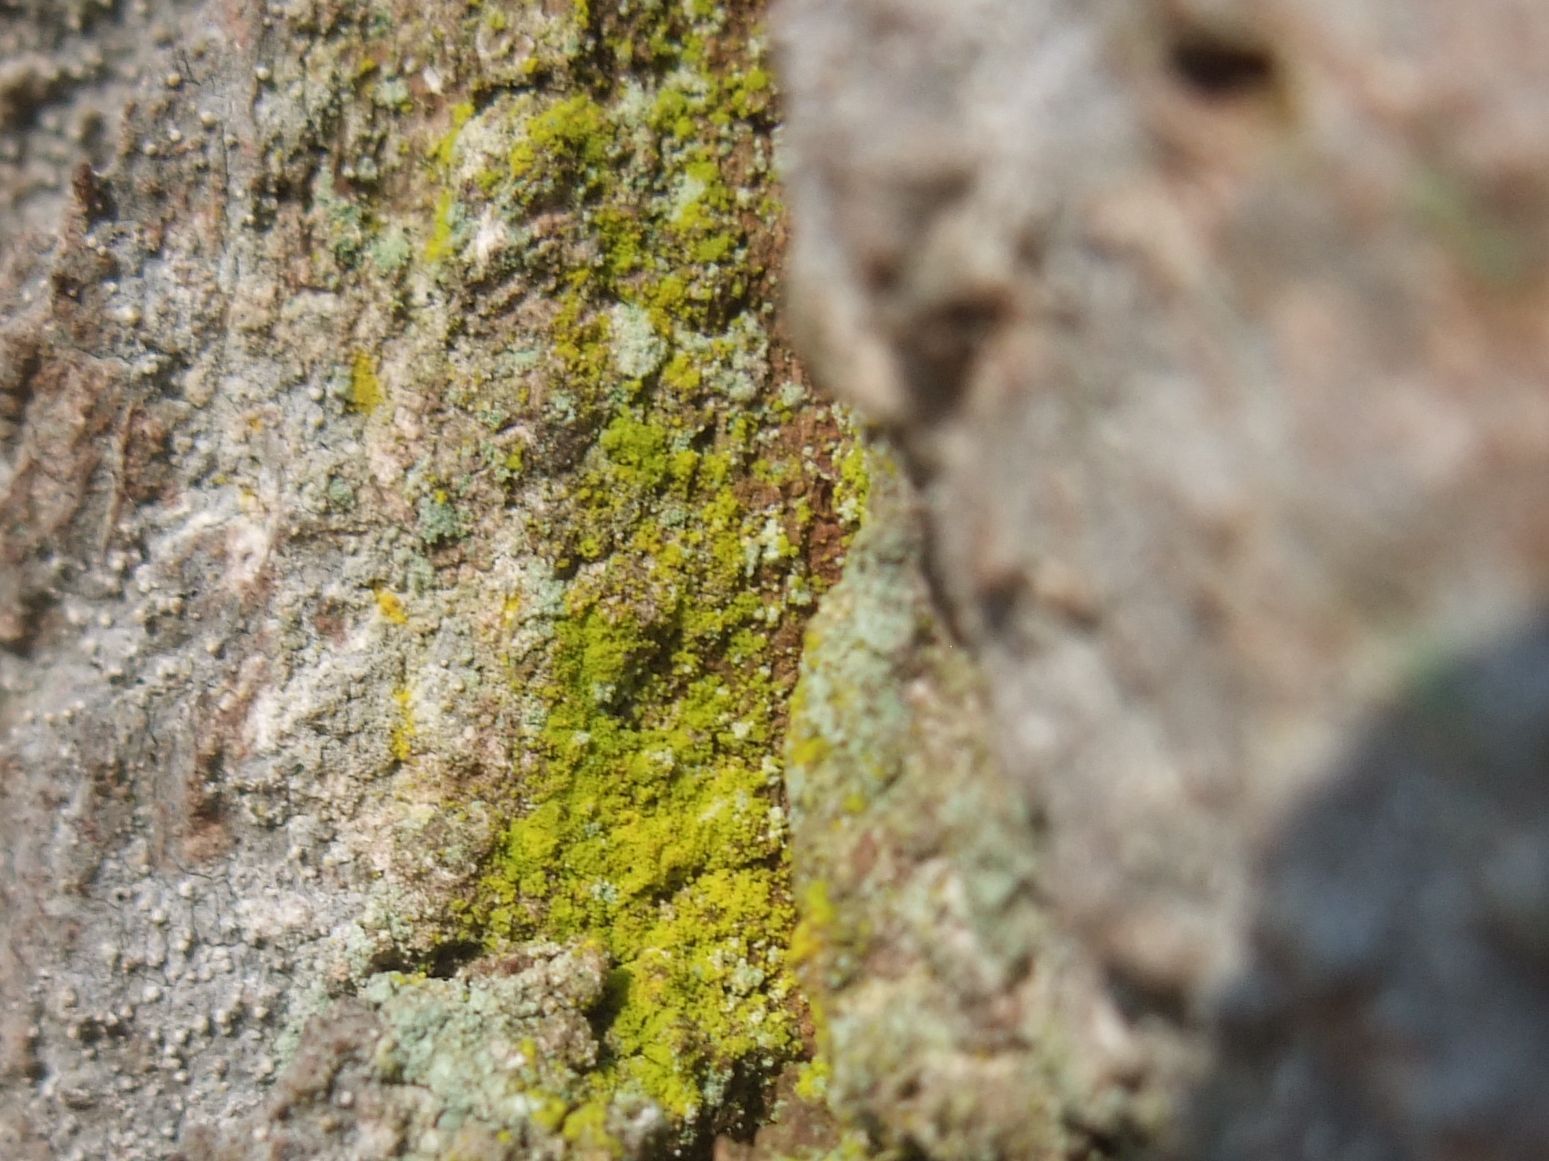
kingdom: Fungi
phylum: Ascomycota
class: Arthoniomycetes
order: Arthoniales
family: Chrysotrichaceae
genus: Chrysothrix
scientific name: Chrysothrix candelaris
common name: gul støvlav
